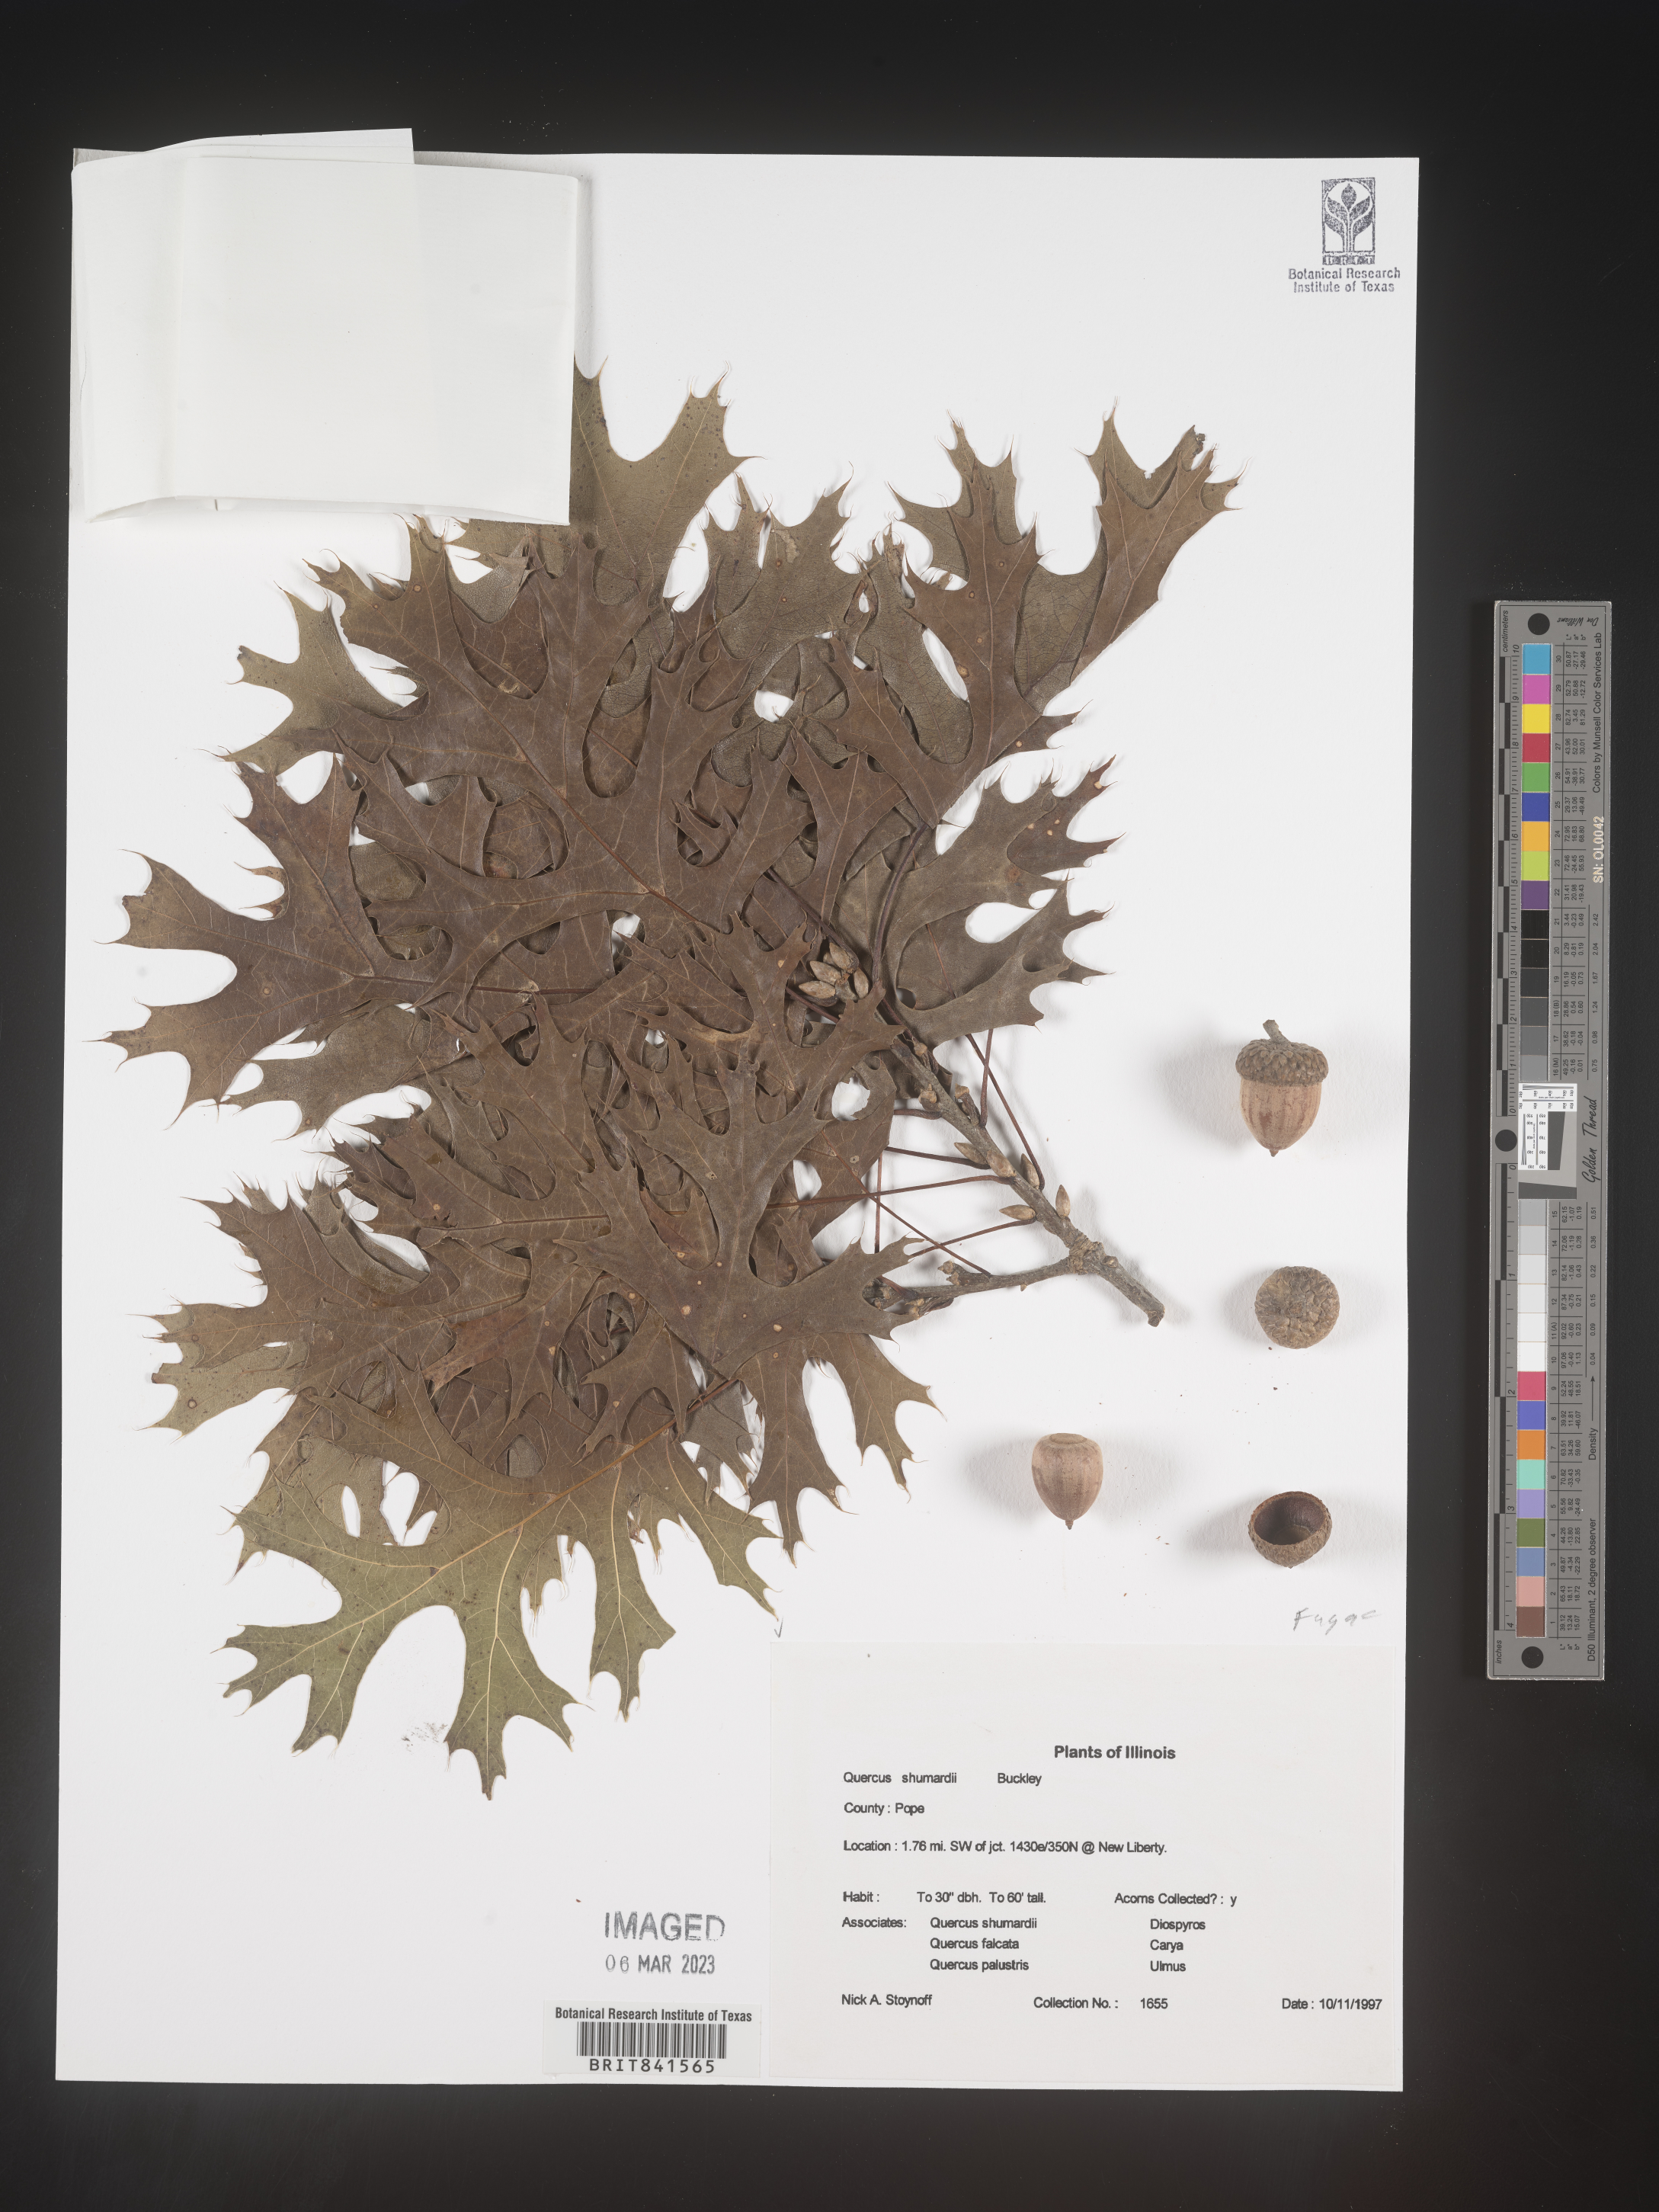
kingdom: Plantae
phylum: Tracheophyta
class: Magnoliopsida
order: Fagales
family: Fagaceae
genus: Quercus
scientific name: Quercus shumardii
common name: Shumard oak
